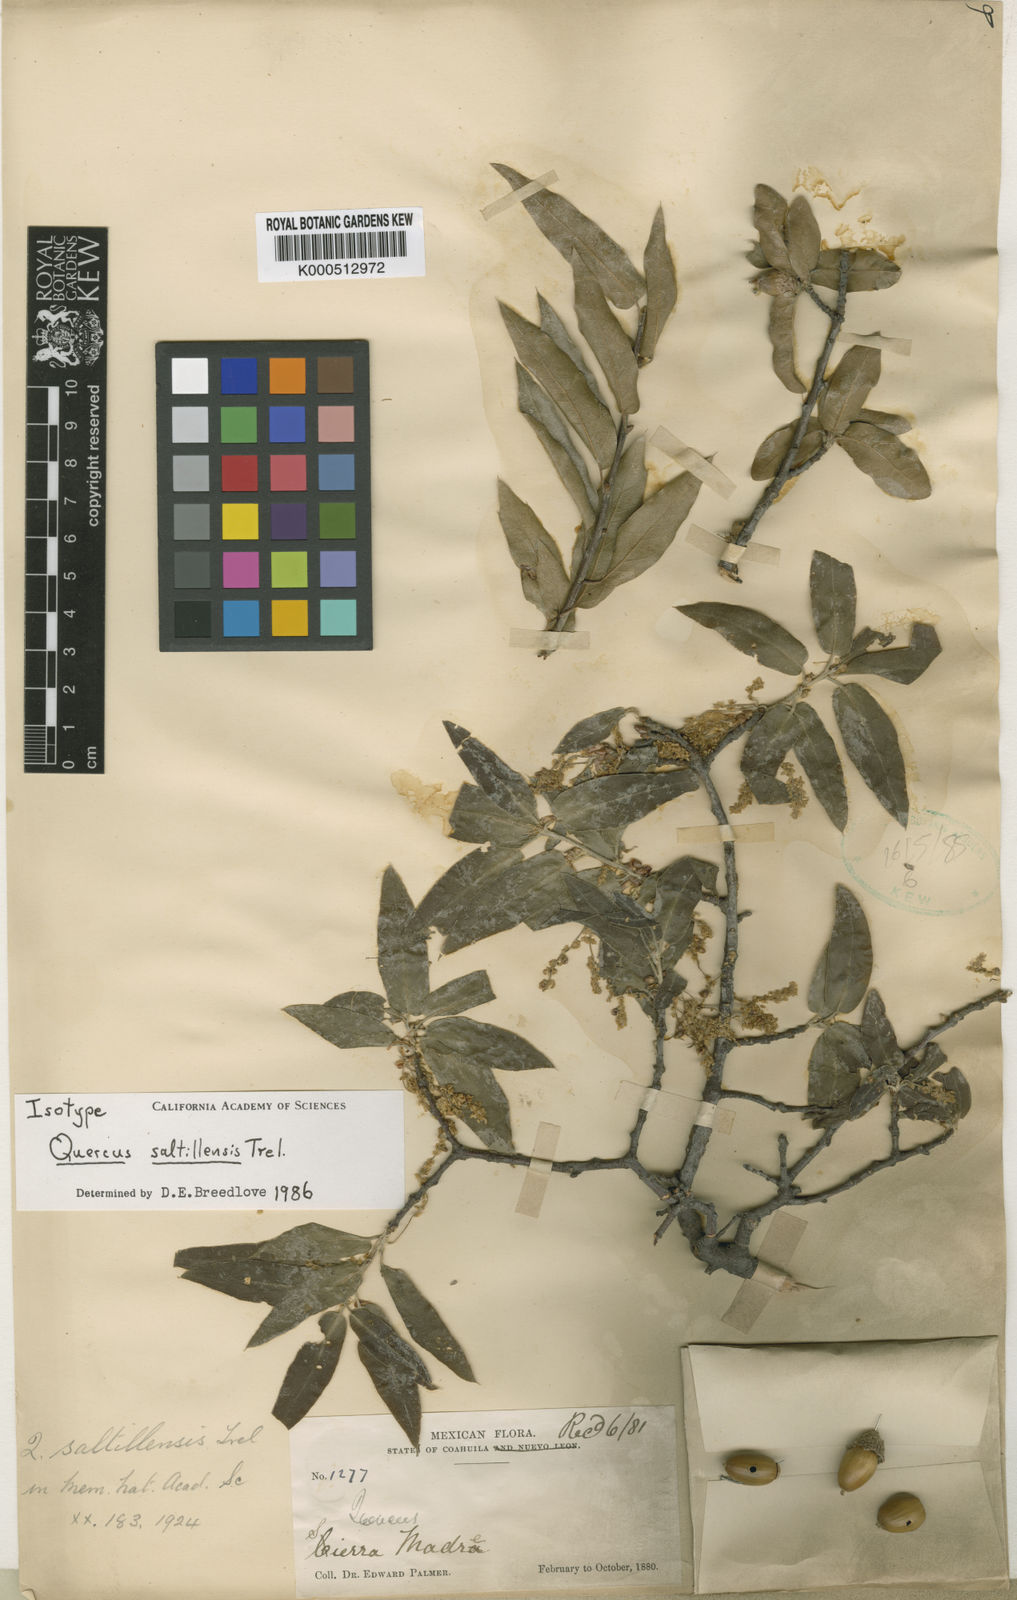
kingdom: Plantae
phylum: Tracheophyta
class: Magnoliopsida
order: Fagales
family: Fagaceae
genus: Quercus
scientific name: Quercus saltillensis
